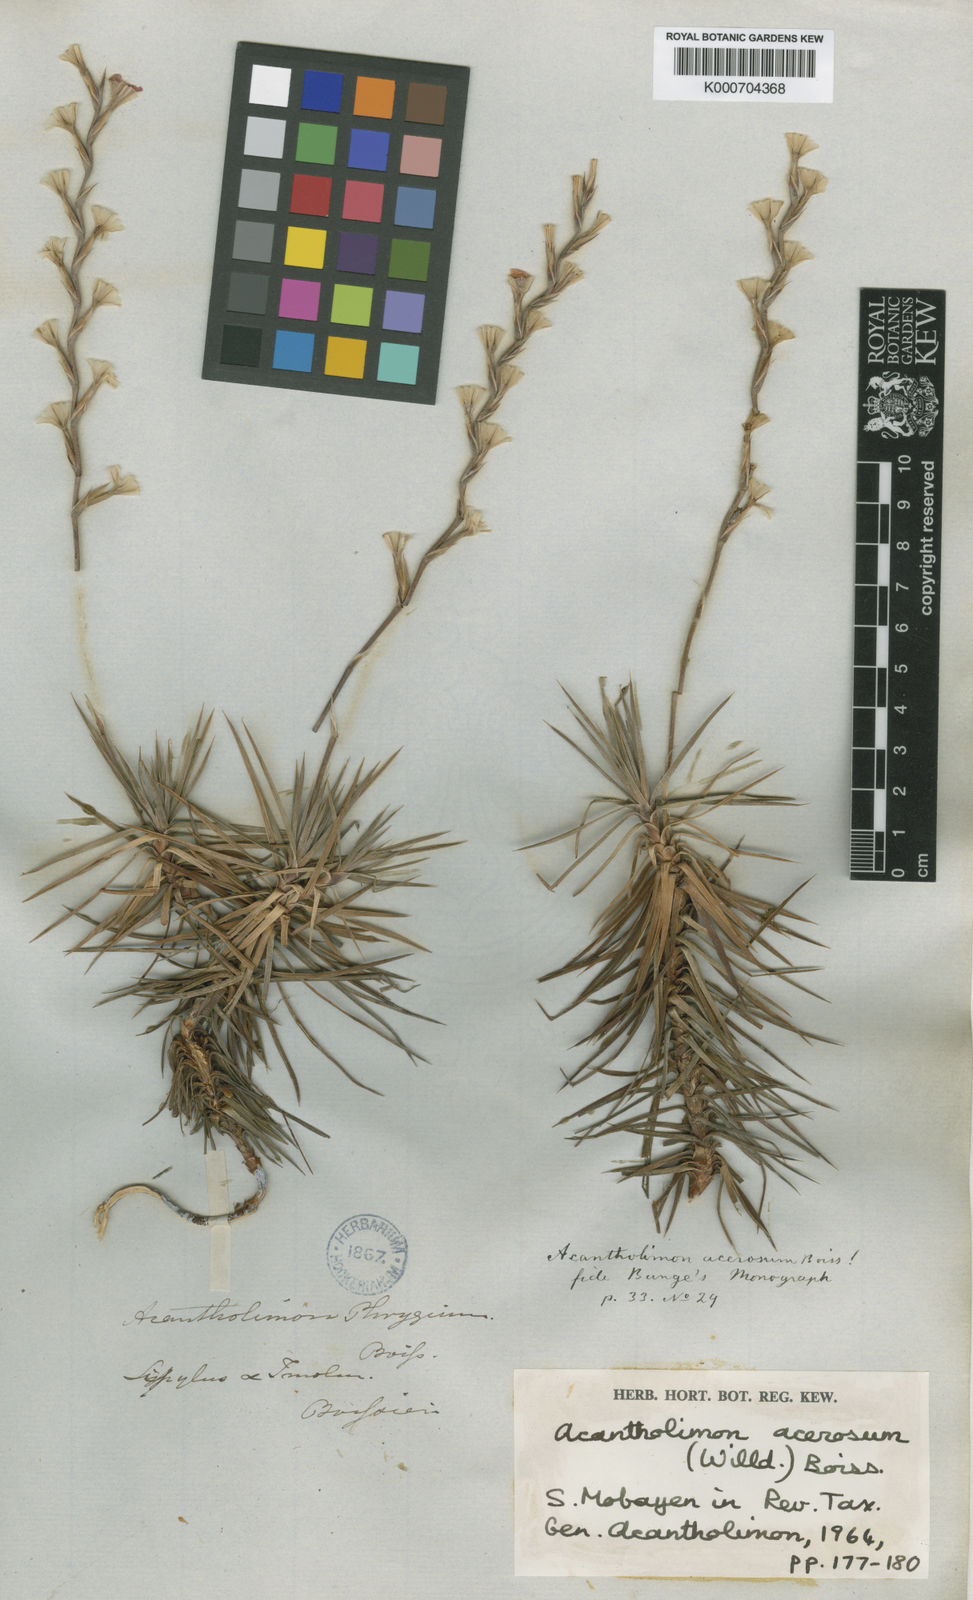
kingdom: Plantae
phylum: Tracheophyta
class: Magnoliopsida
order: Caryophyllales
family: Plumbaginaceae
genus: Acantholimon
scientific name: Acantholimon acerosum
